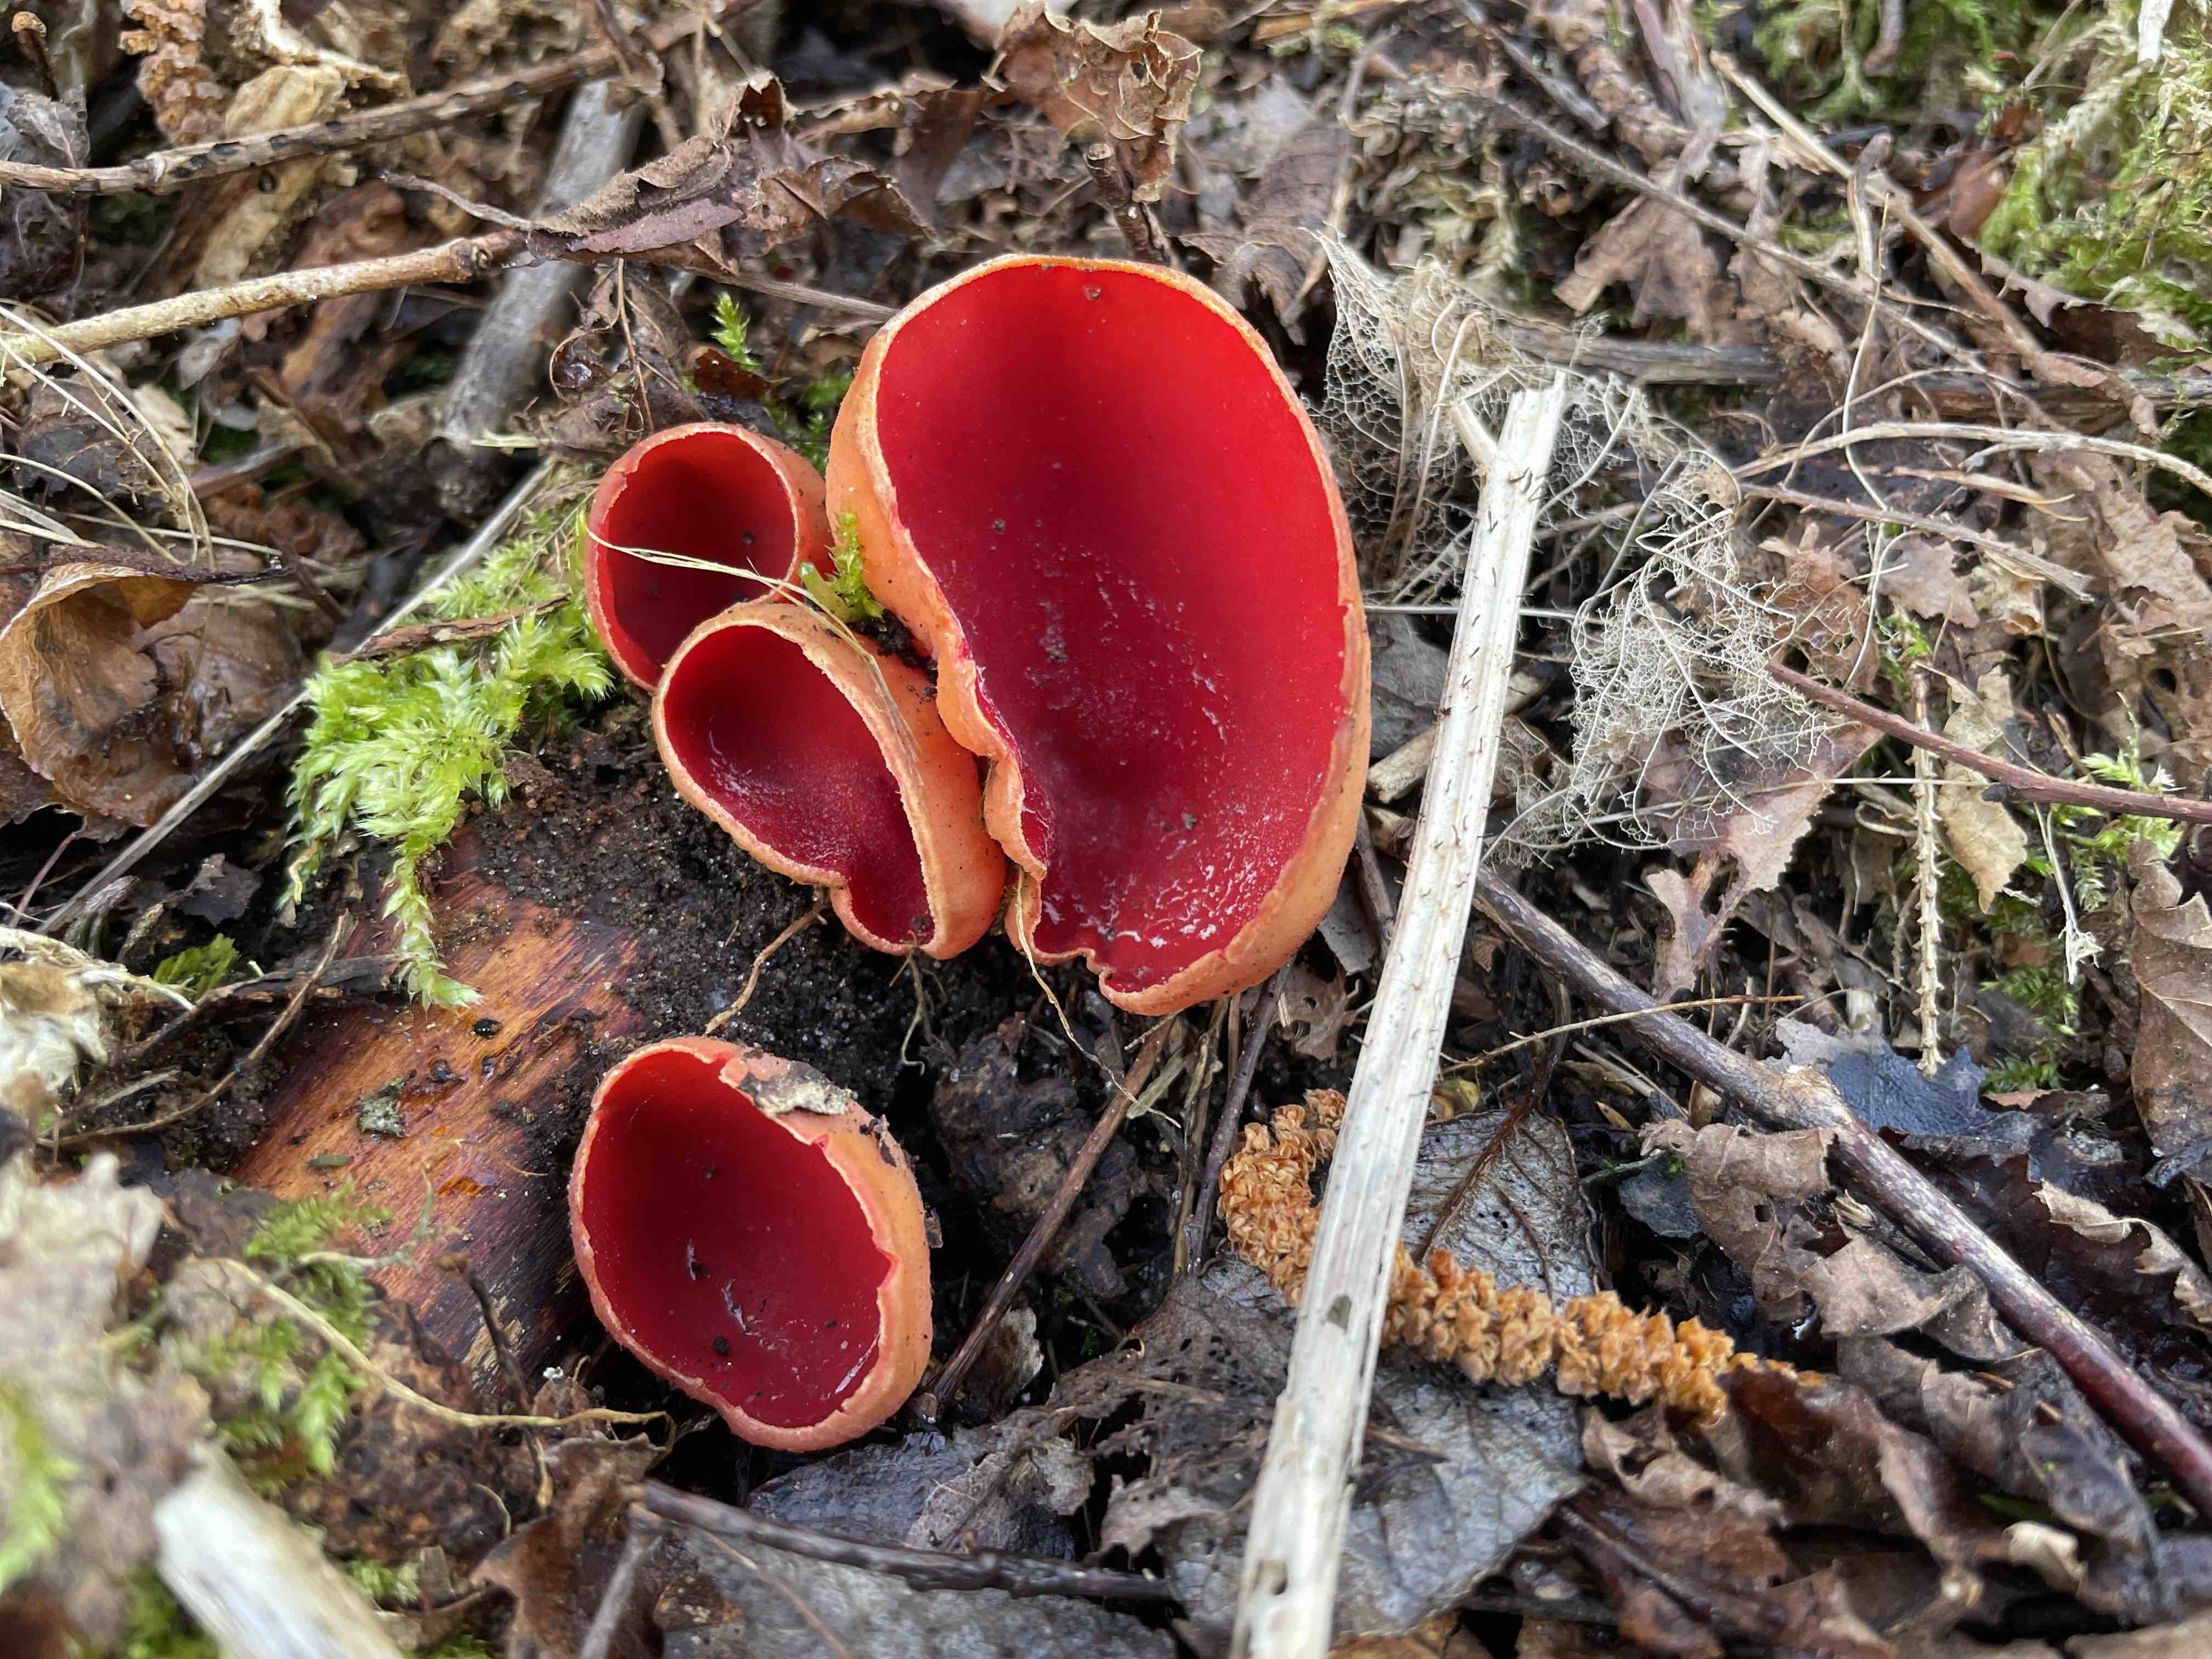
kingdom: Fungi
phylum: Ascomycota
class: Pezizomycetes
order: Pezizales
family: Sarcoscyphaceae
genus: Sarcoscypha
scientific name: Sarcoscypha austriaca
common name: krølhåret pragtbæger
